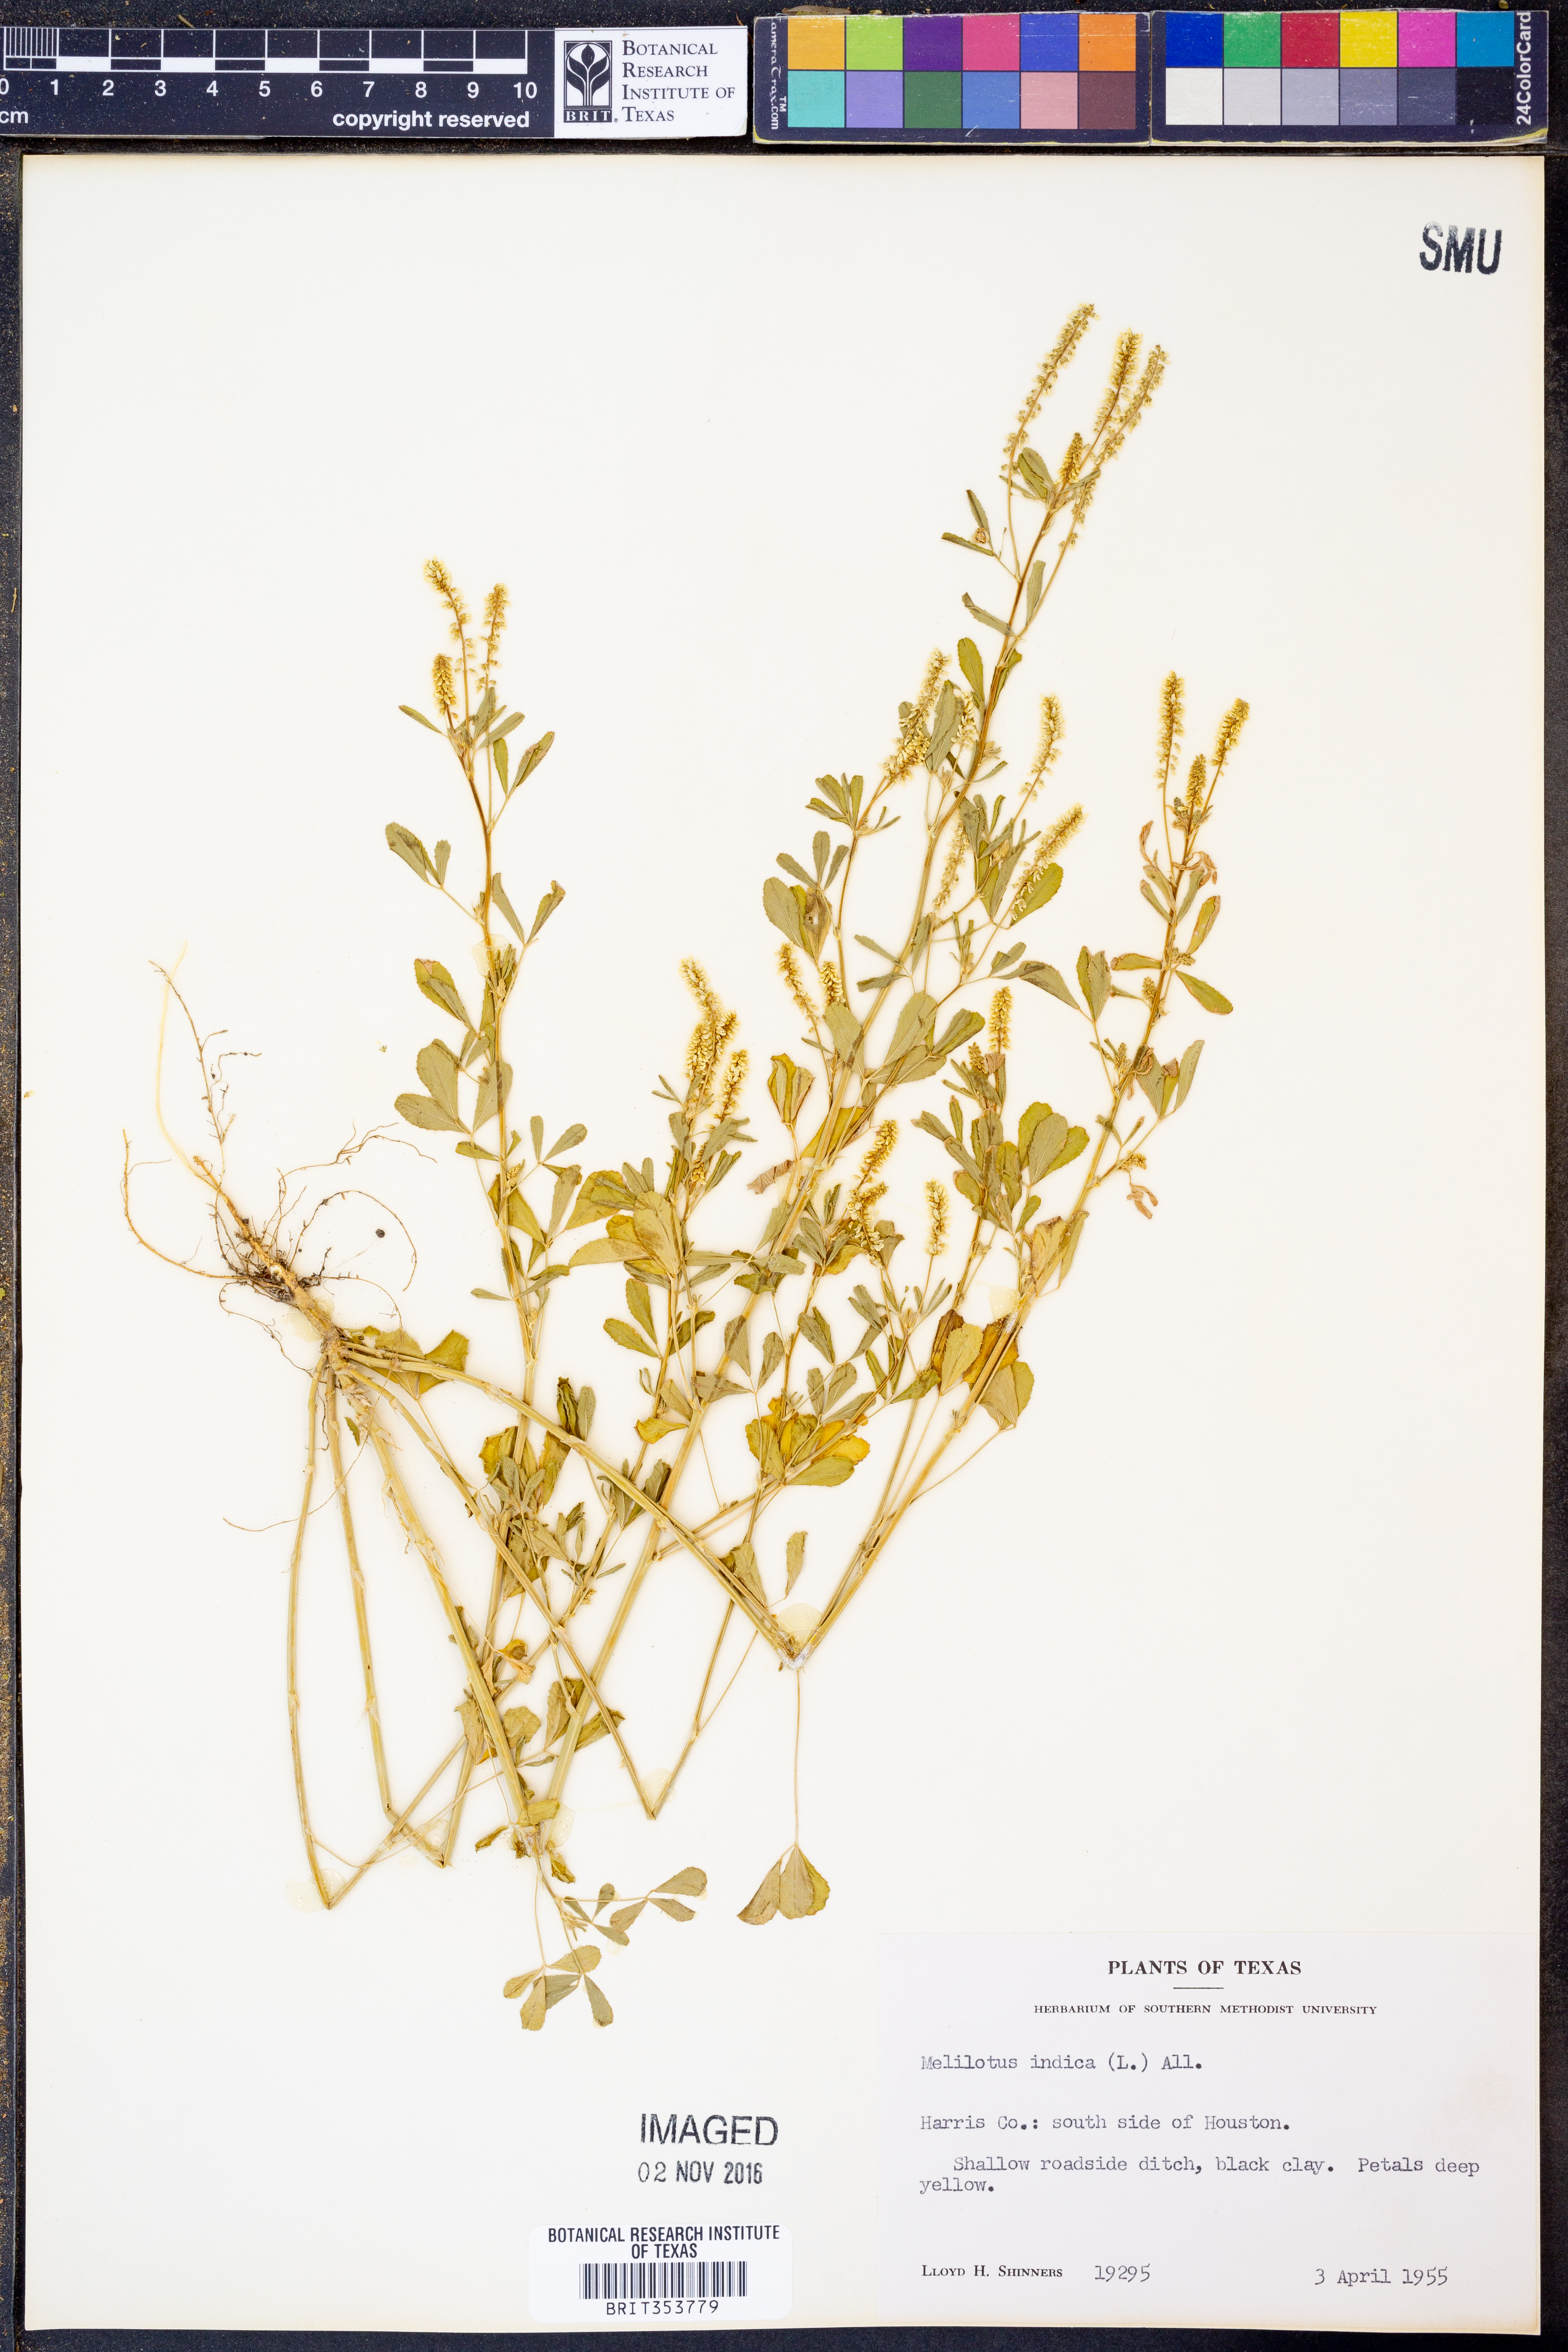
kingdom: Plantae
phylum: Tracheophyta
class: Magnoliopsida
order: Fabales
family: Fabaceae
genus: Melilotus
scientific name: Melilotus indicus
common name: Small melilot
